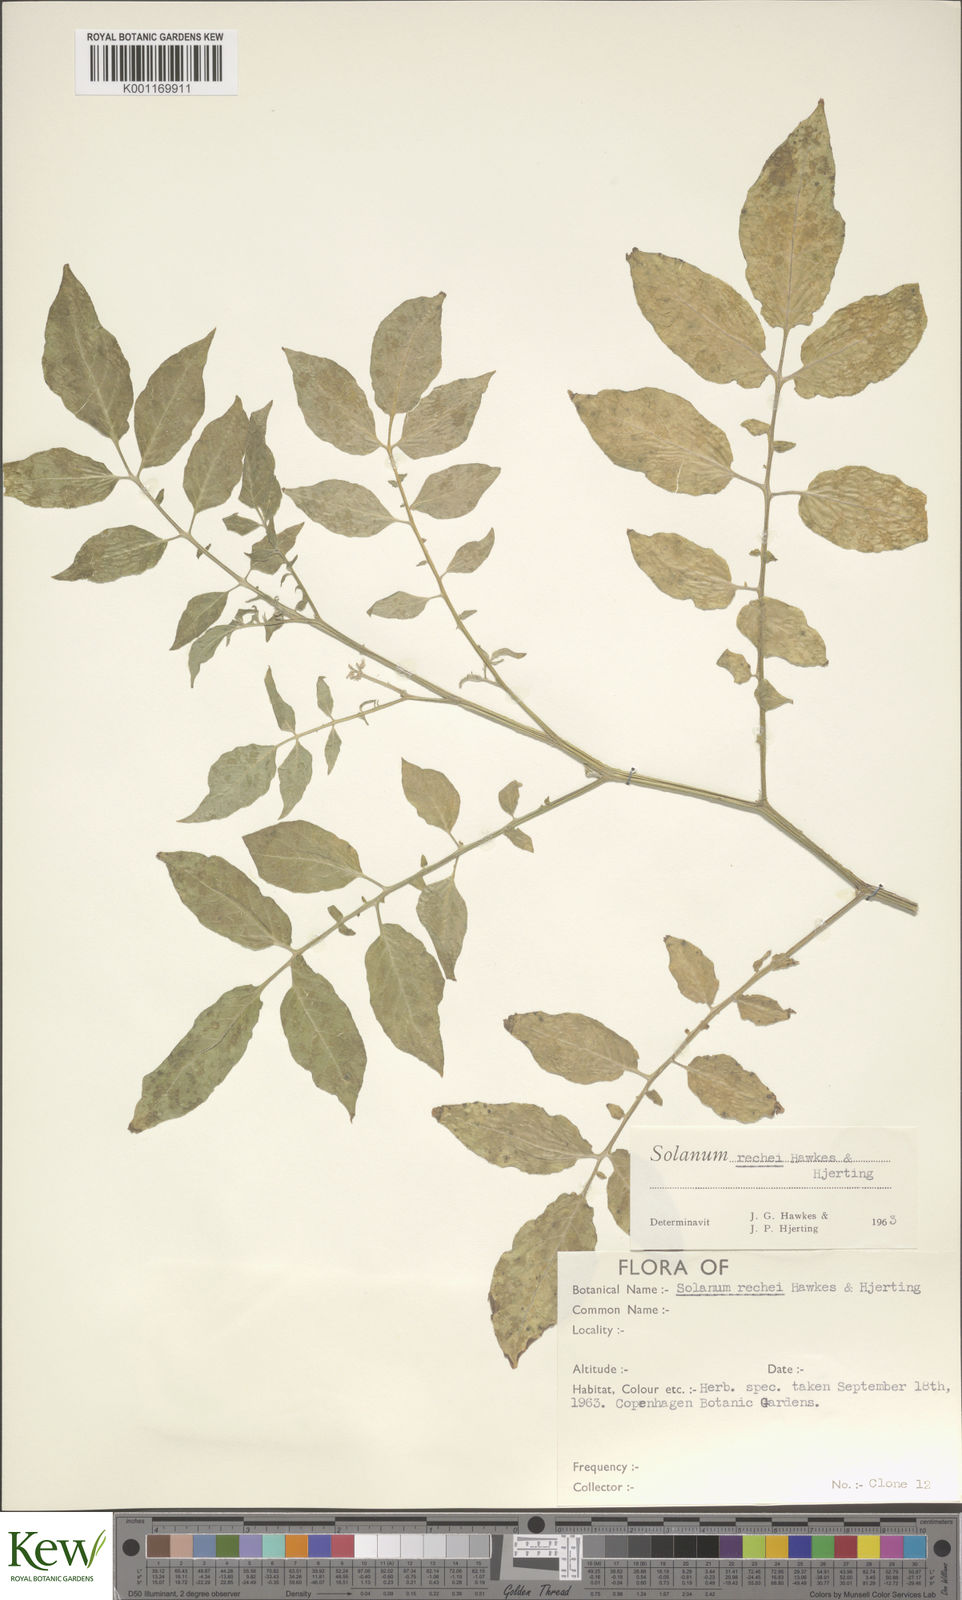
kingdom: Plantae
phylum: Tracheophyta
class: Magnoliopsida
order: Solanales
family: Solanaceae
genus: Solanum
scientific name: Solanum rechei
